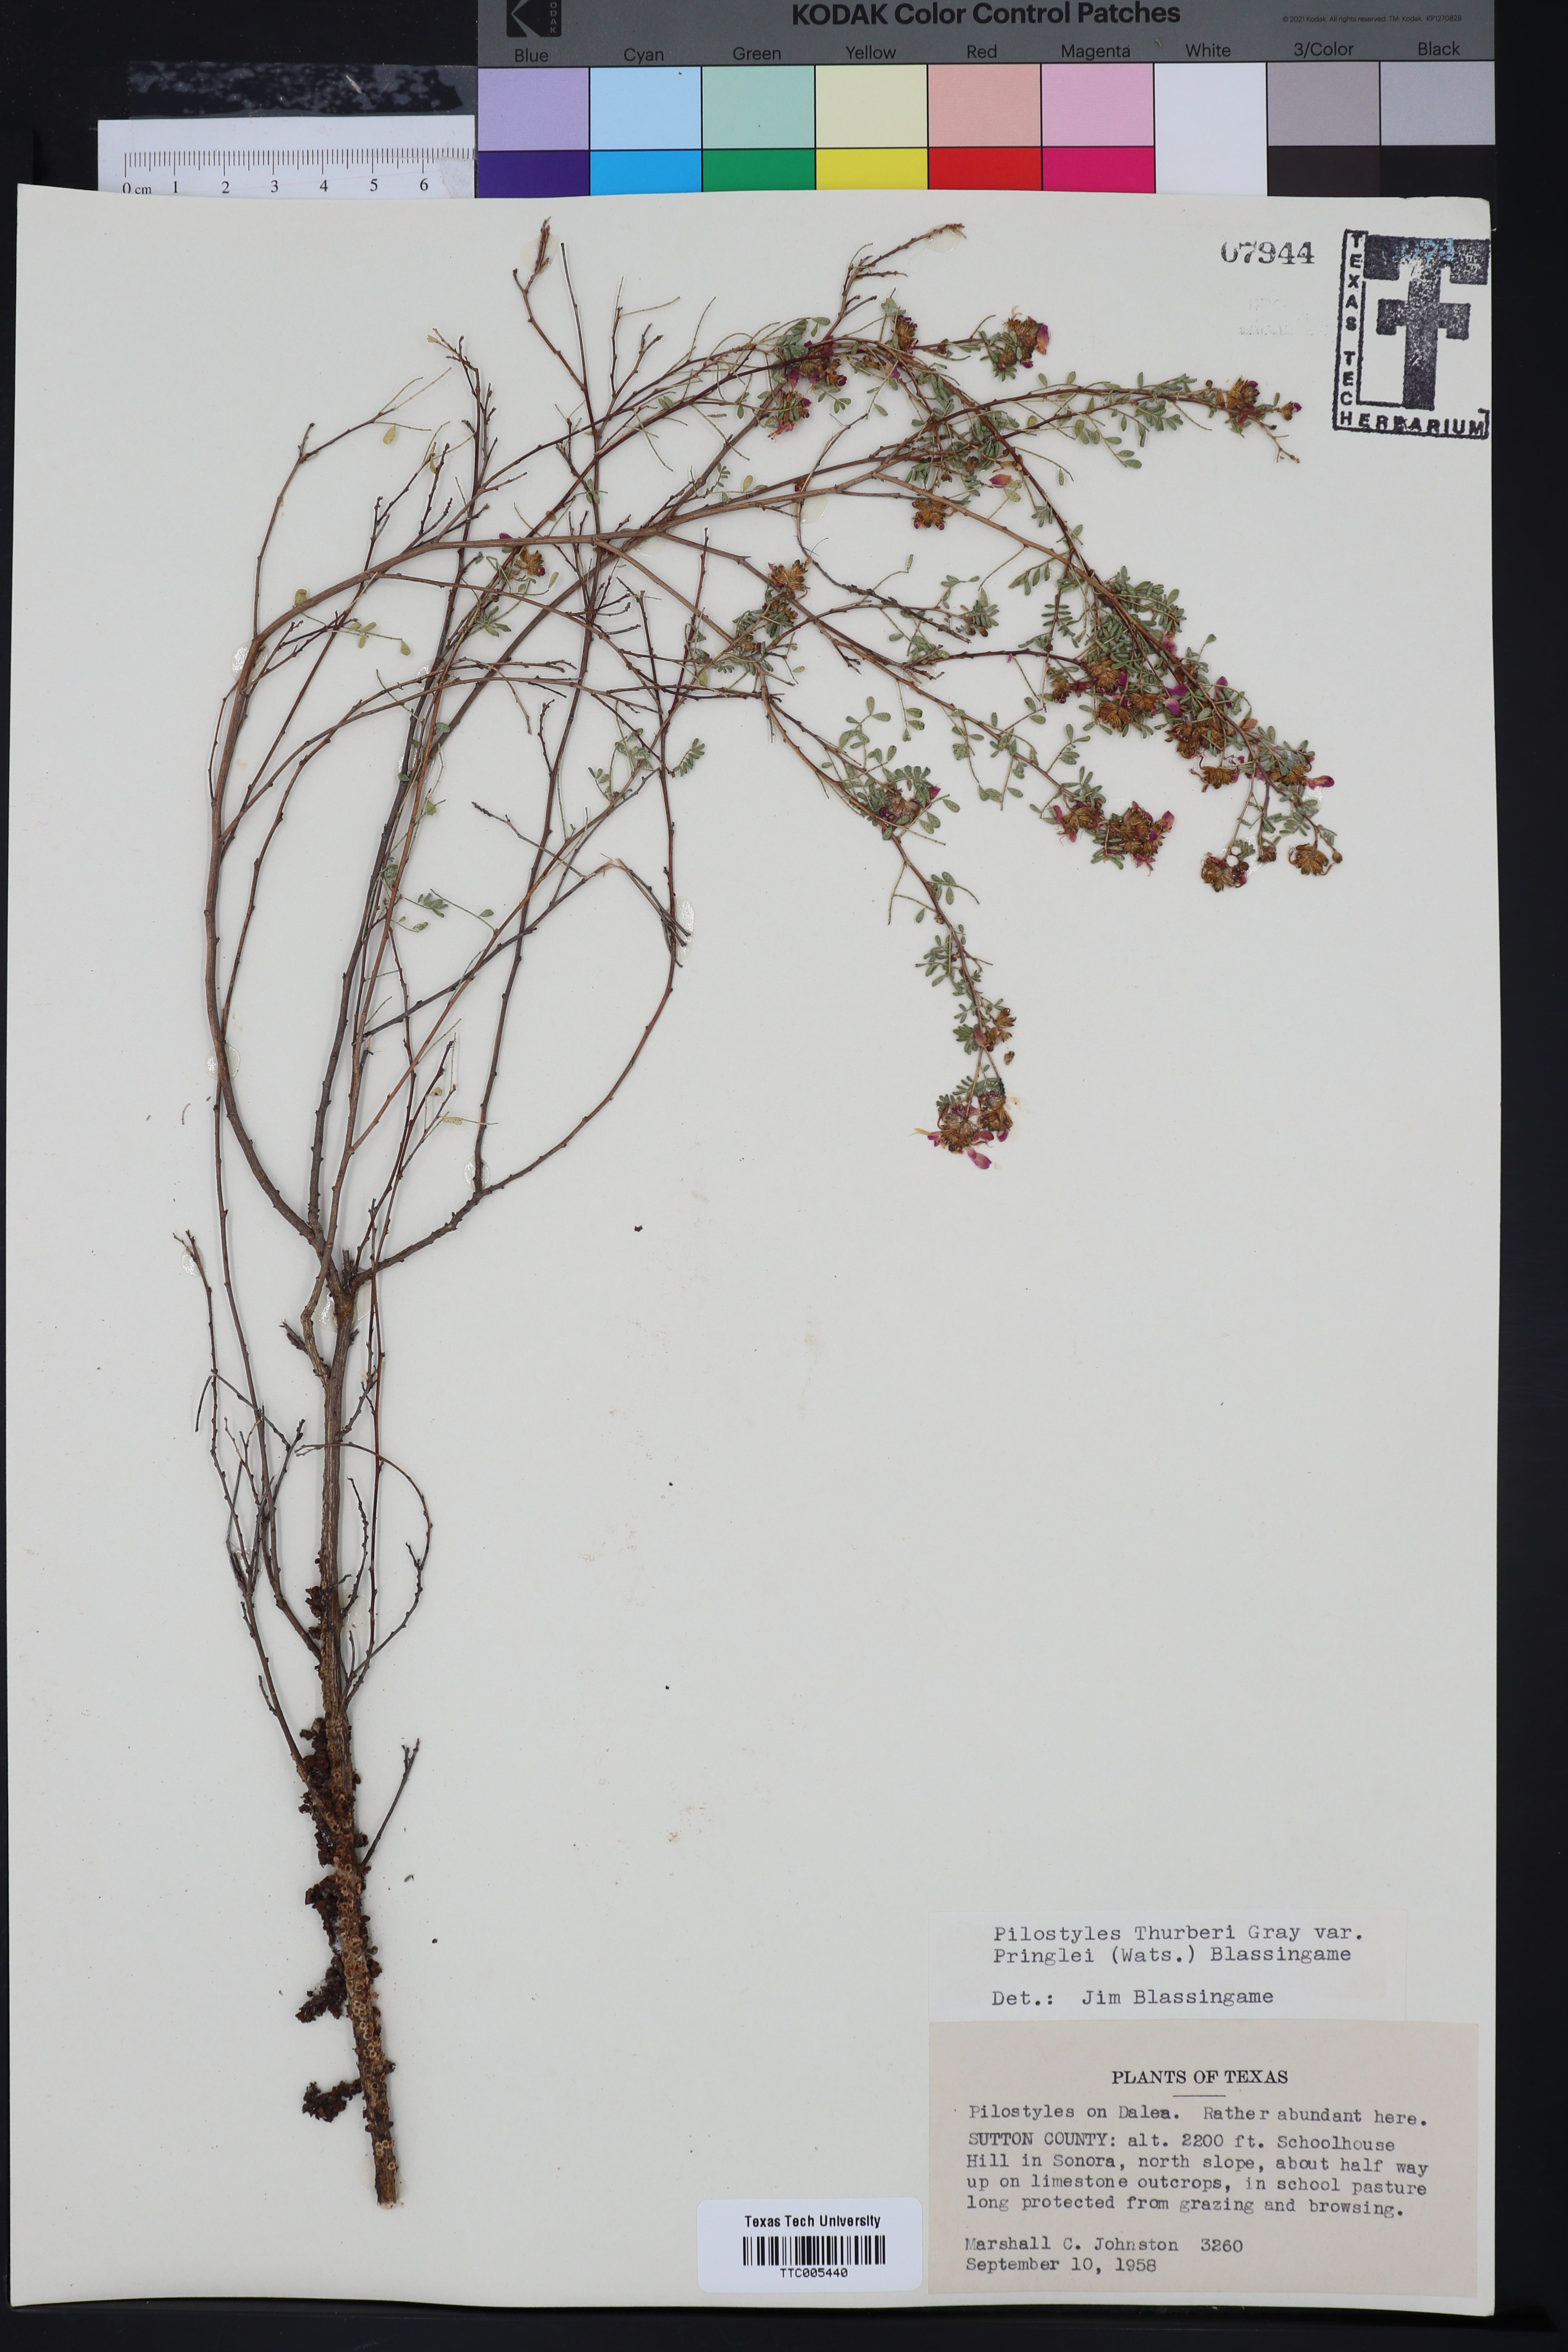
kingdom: Plantae
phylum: Tracheophyta
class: Magnoliopsida
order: Cucurbitales
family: Apodanthaceae
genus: Pilostyles
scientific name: Pilostyles thurberi
